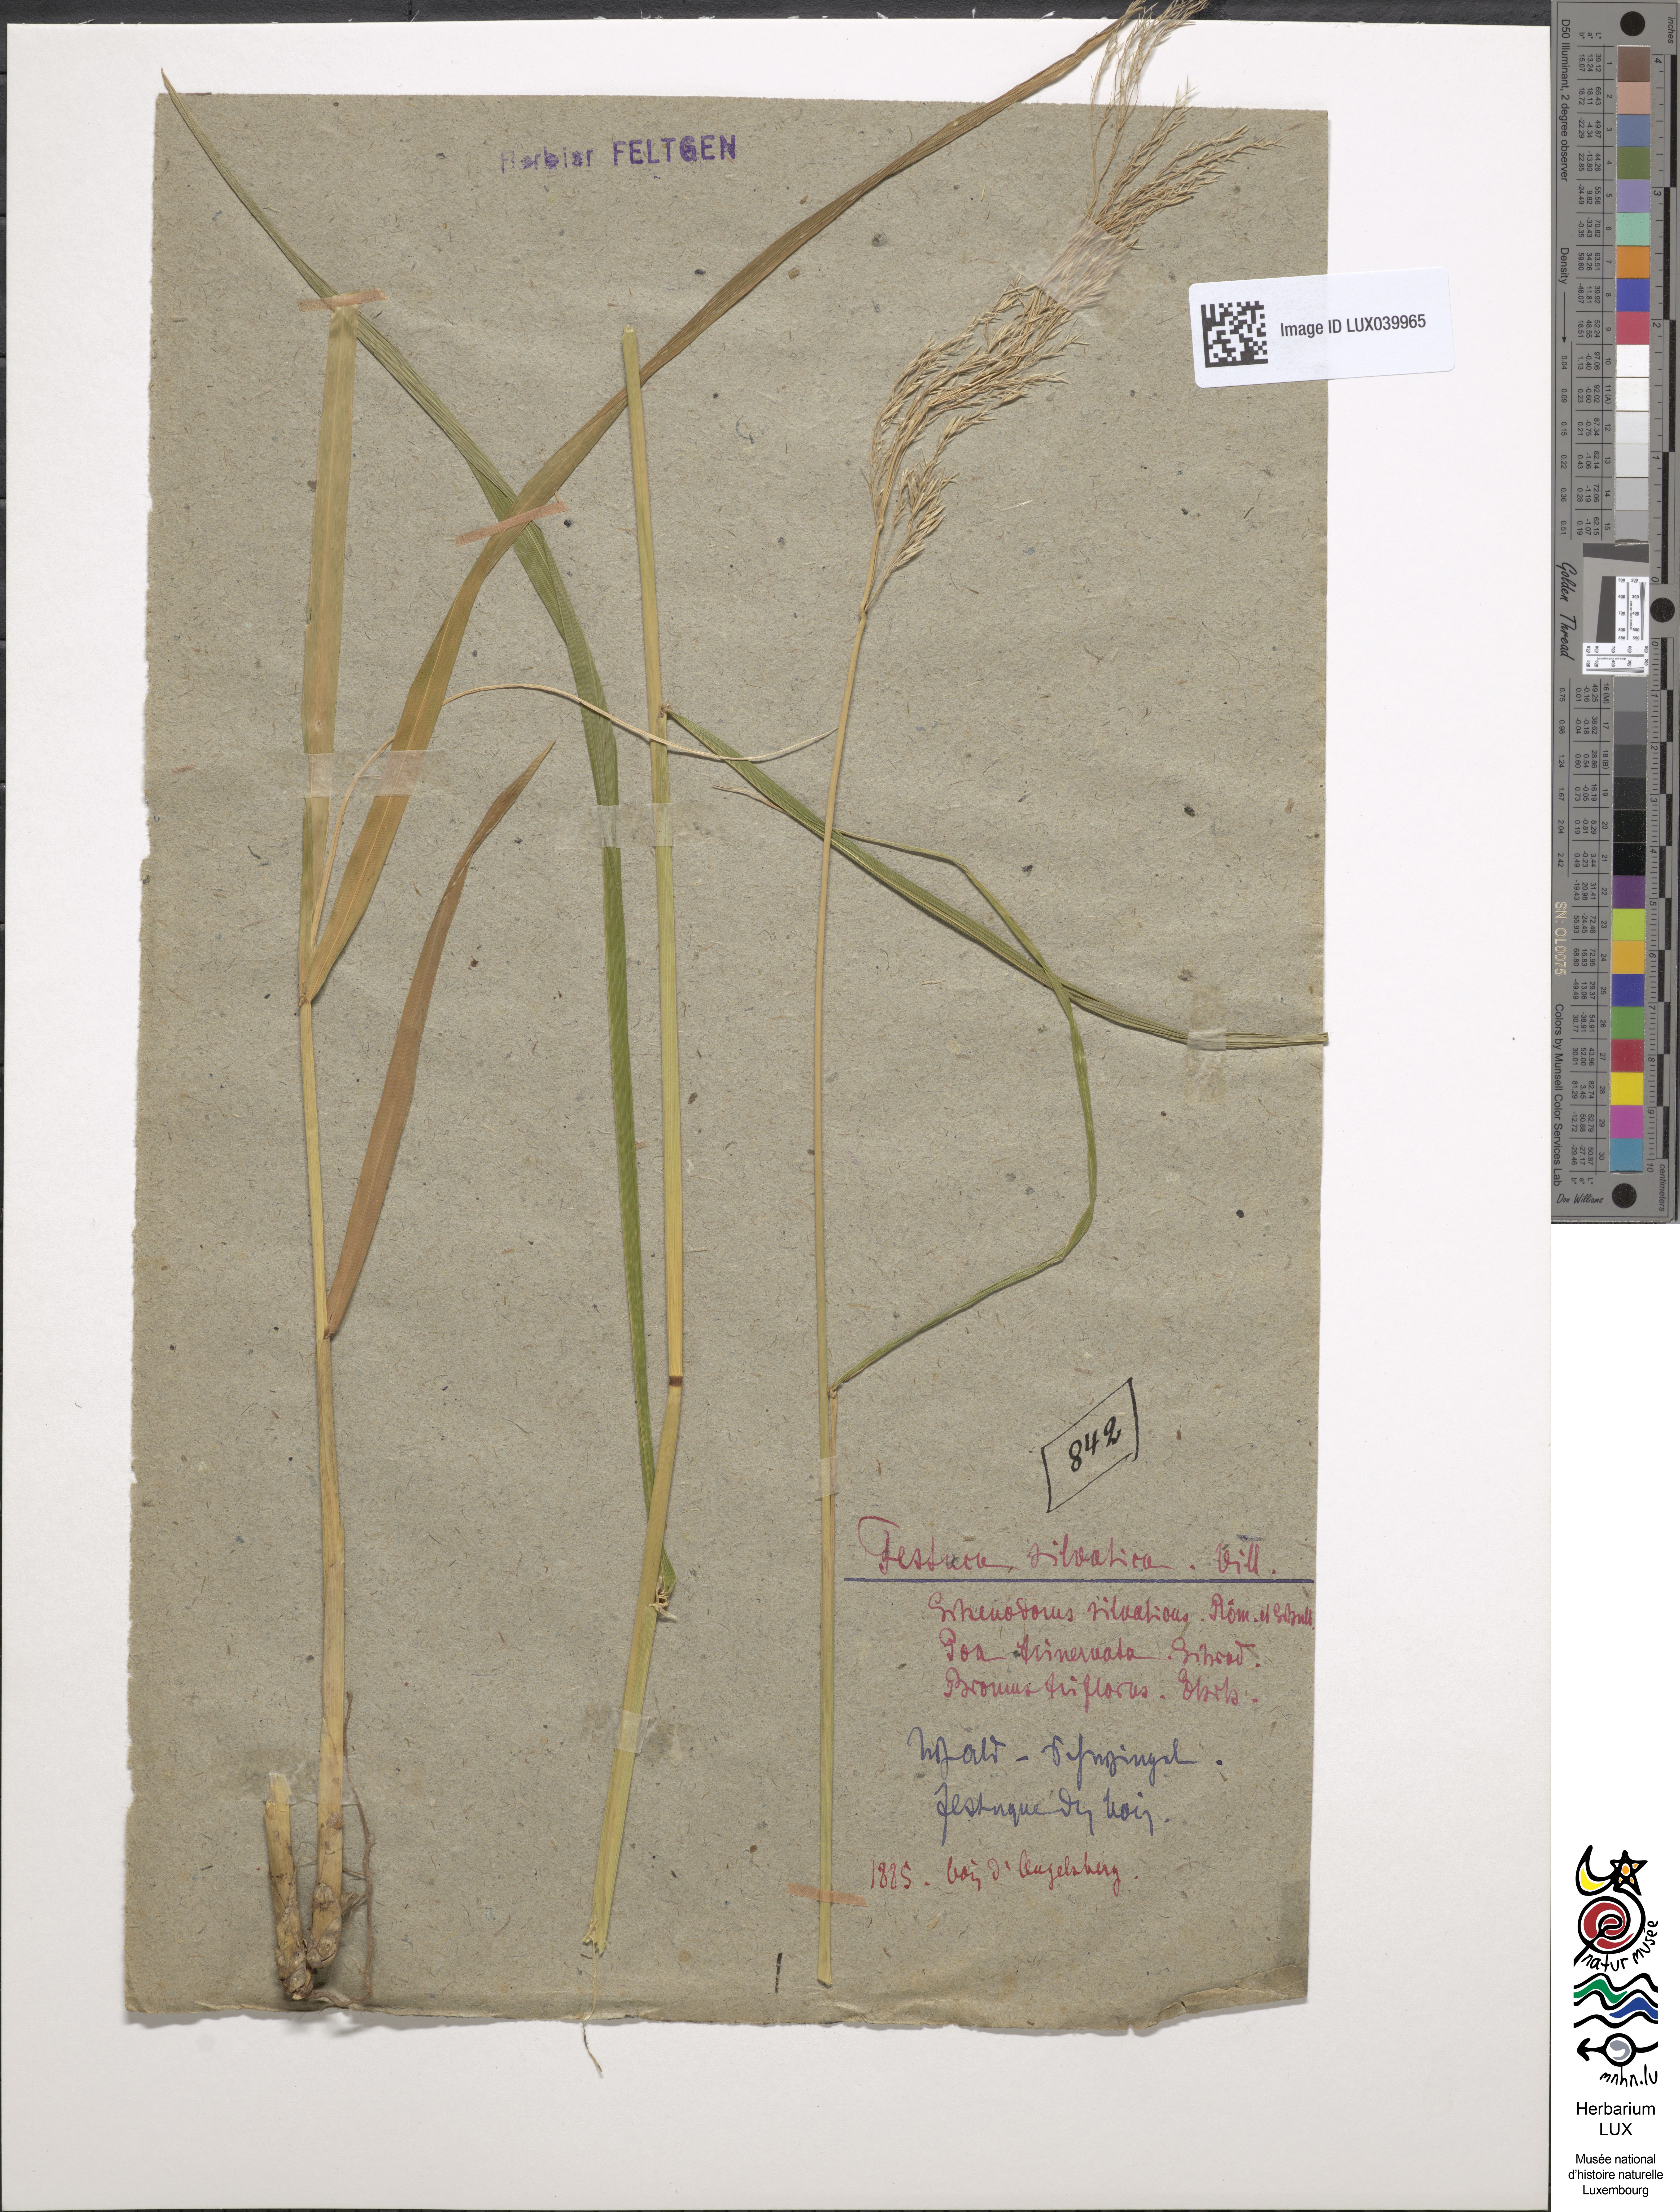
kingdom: Plantae
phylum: Tracheophyta
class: Liliopsida
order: Poales
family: Poaceae
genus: Festuca
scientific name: Festuca altissima
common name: Wood fescue
